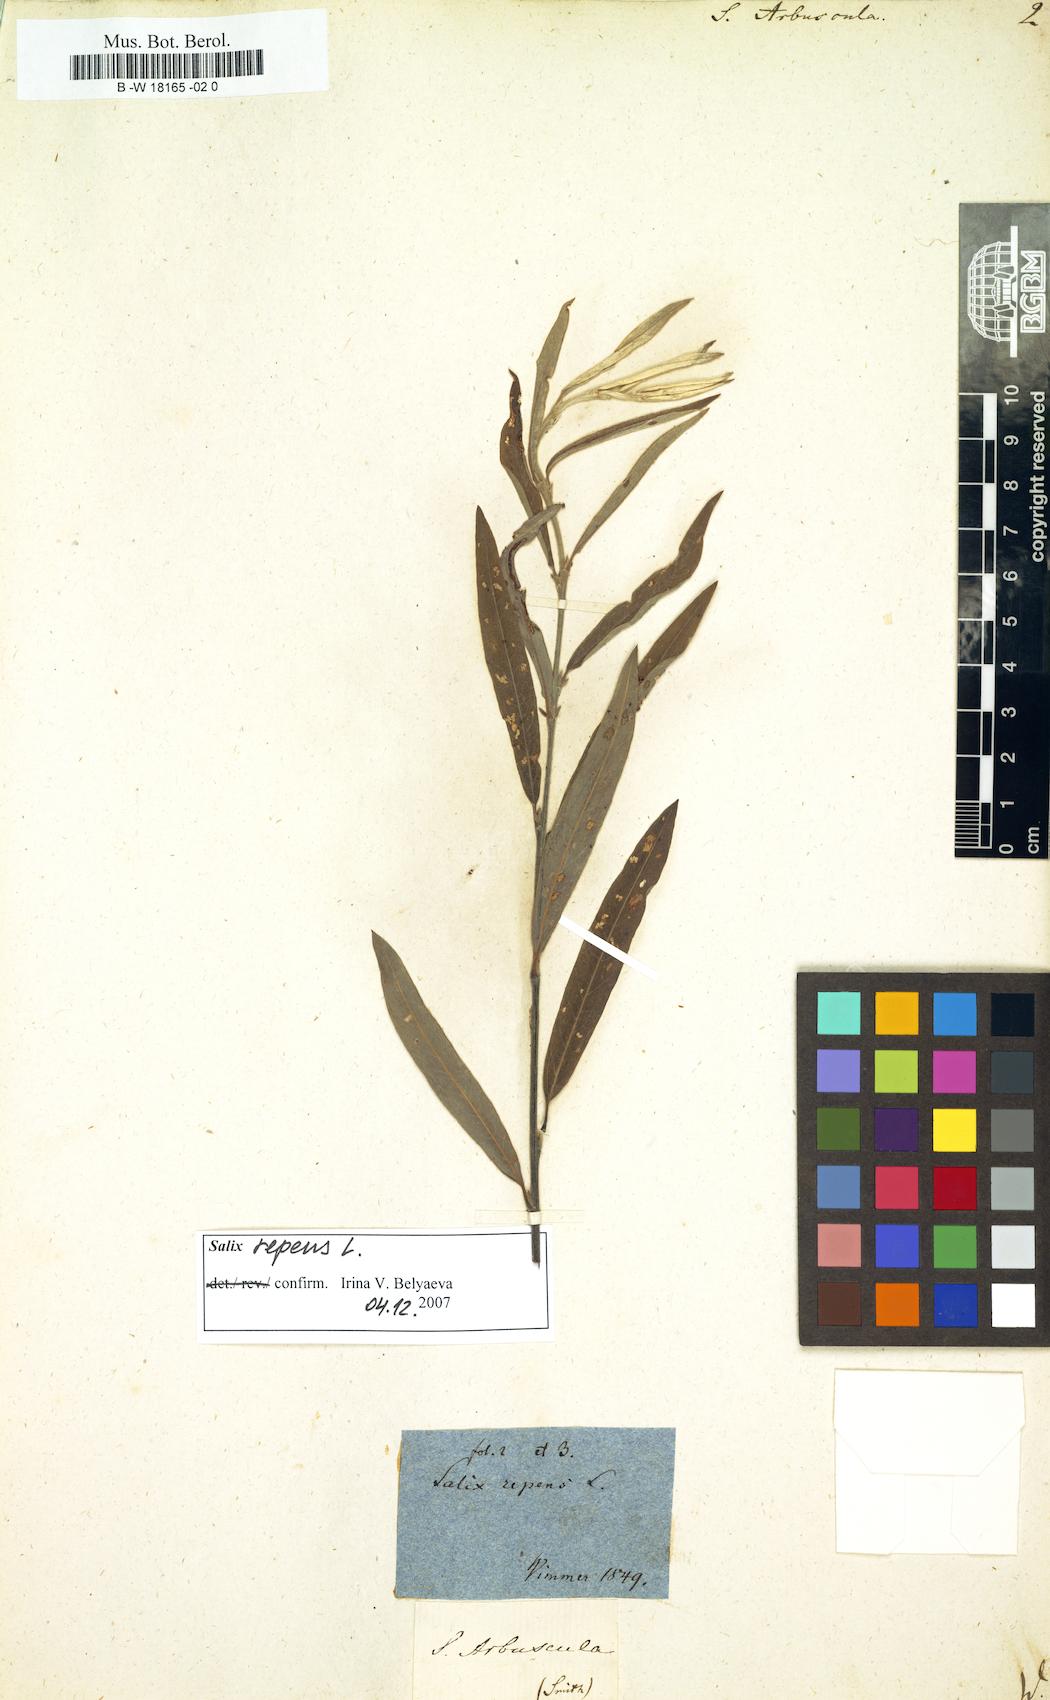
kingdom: Plantae
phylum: Tracheophyta
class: Magnoliopsida
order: Malpighiales
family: Salicaceae
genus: Salix
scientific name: Salix arbuscula
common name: Mountain willow
